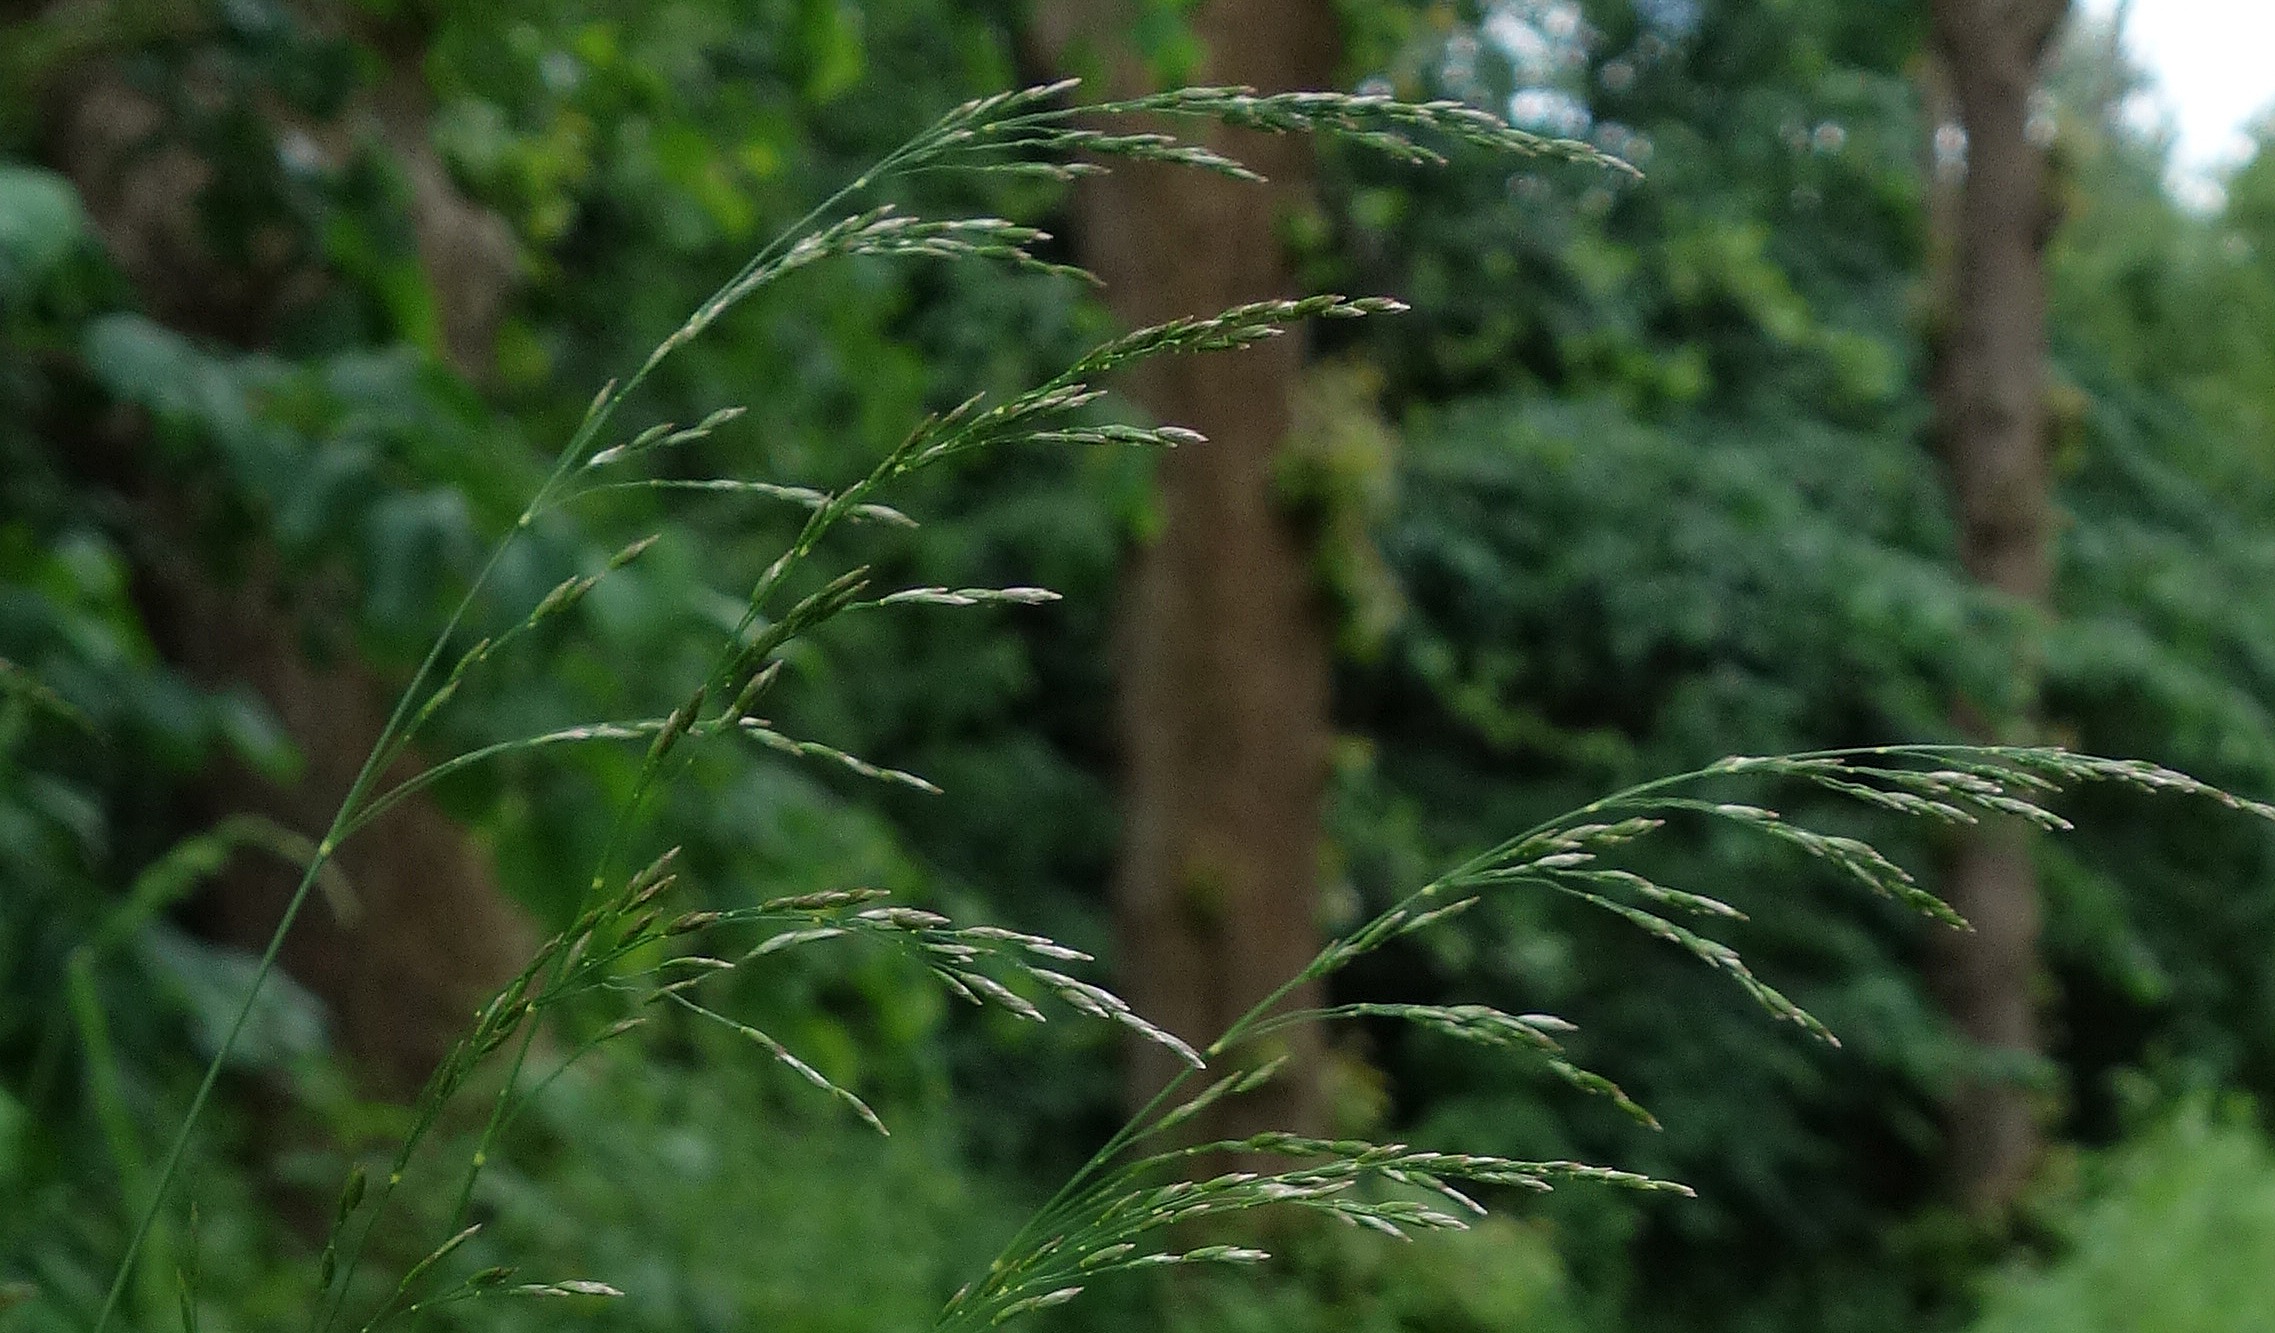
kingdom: Plantae
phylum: Tracheophyta
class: Liliopsida
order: Poales
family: Poaceae
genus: Poa
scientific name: Poa nemoralis
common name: Lund-rapgræs
